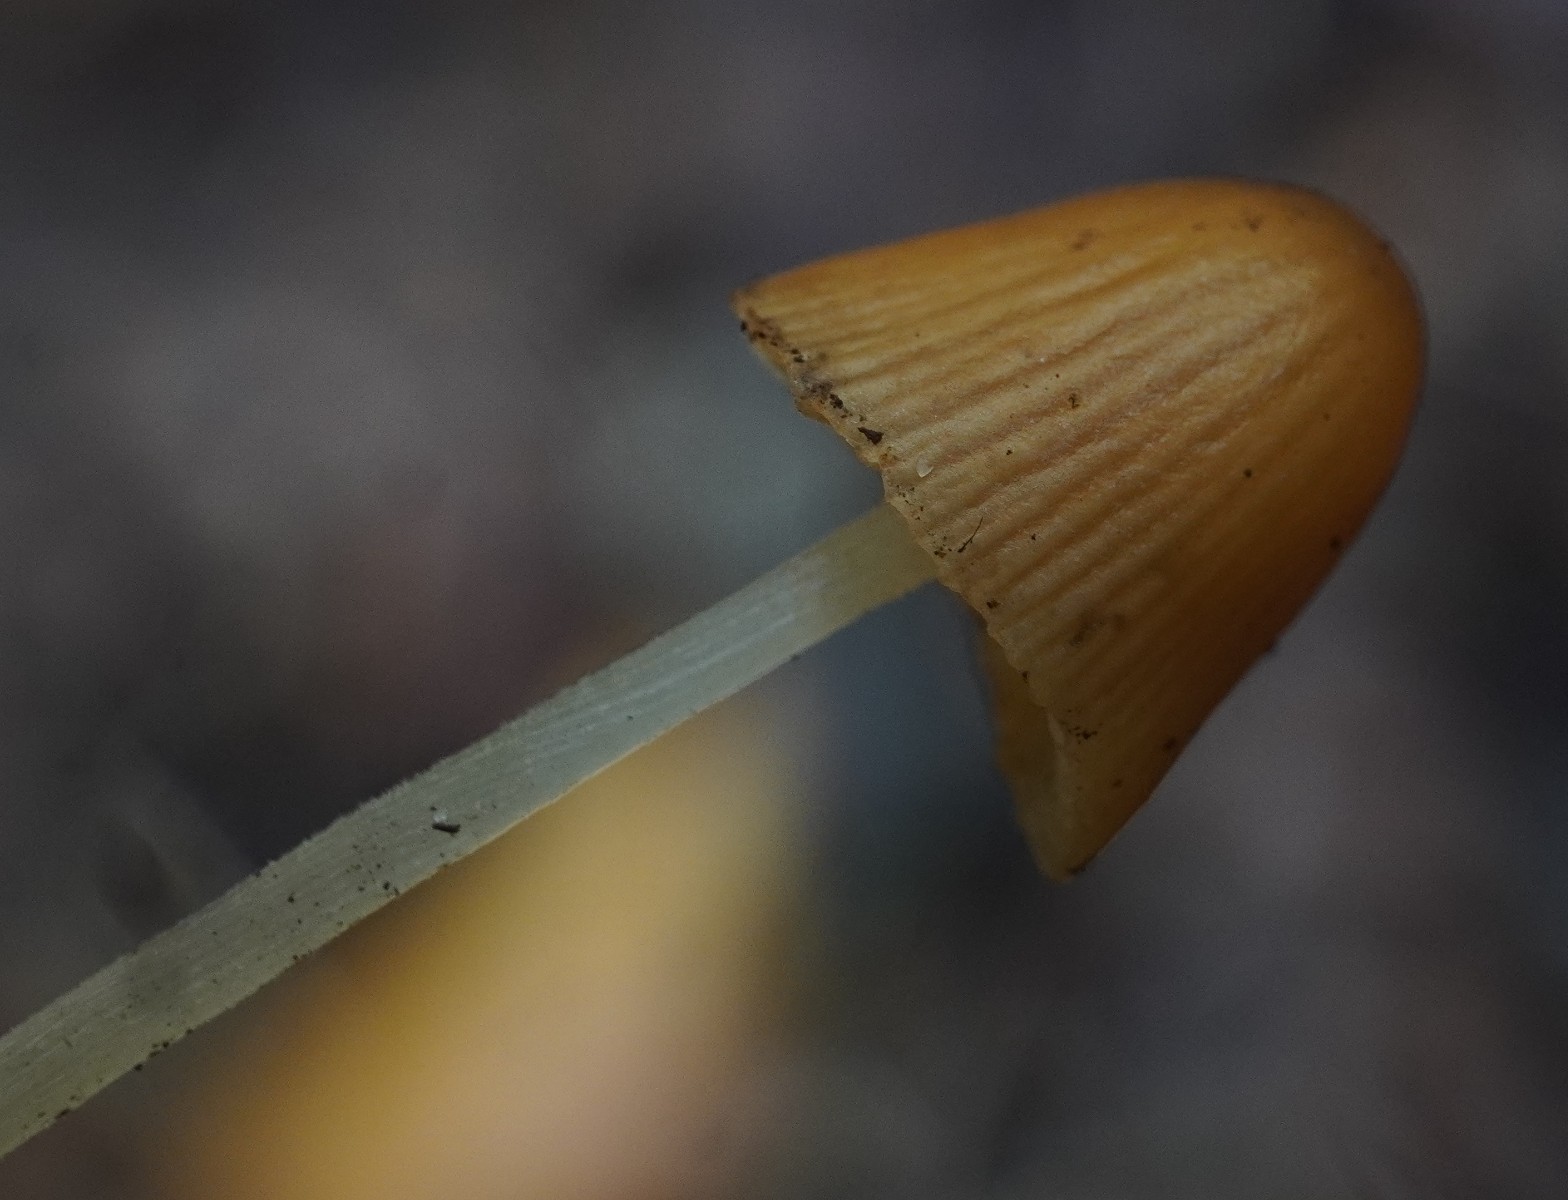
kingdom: Fungi
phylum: Basidiomycota
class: Agaricomycetes
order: Agaricales
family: Bolbitiaceae
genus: Conocybe
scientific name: Conocybe
